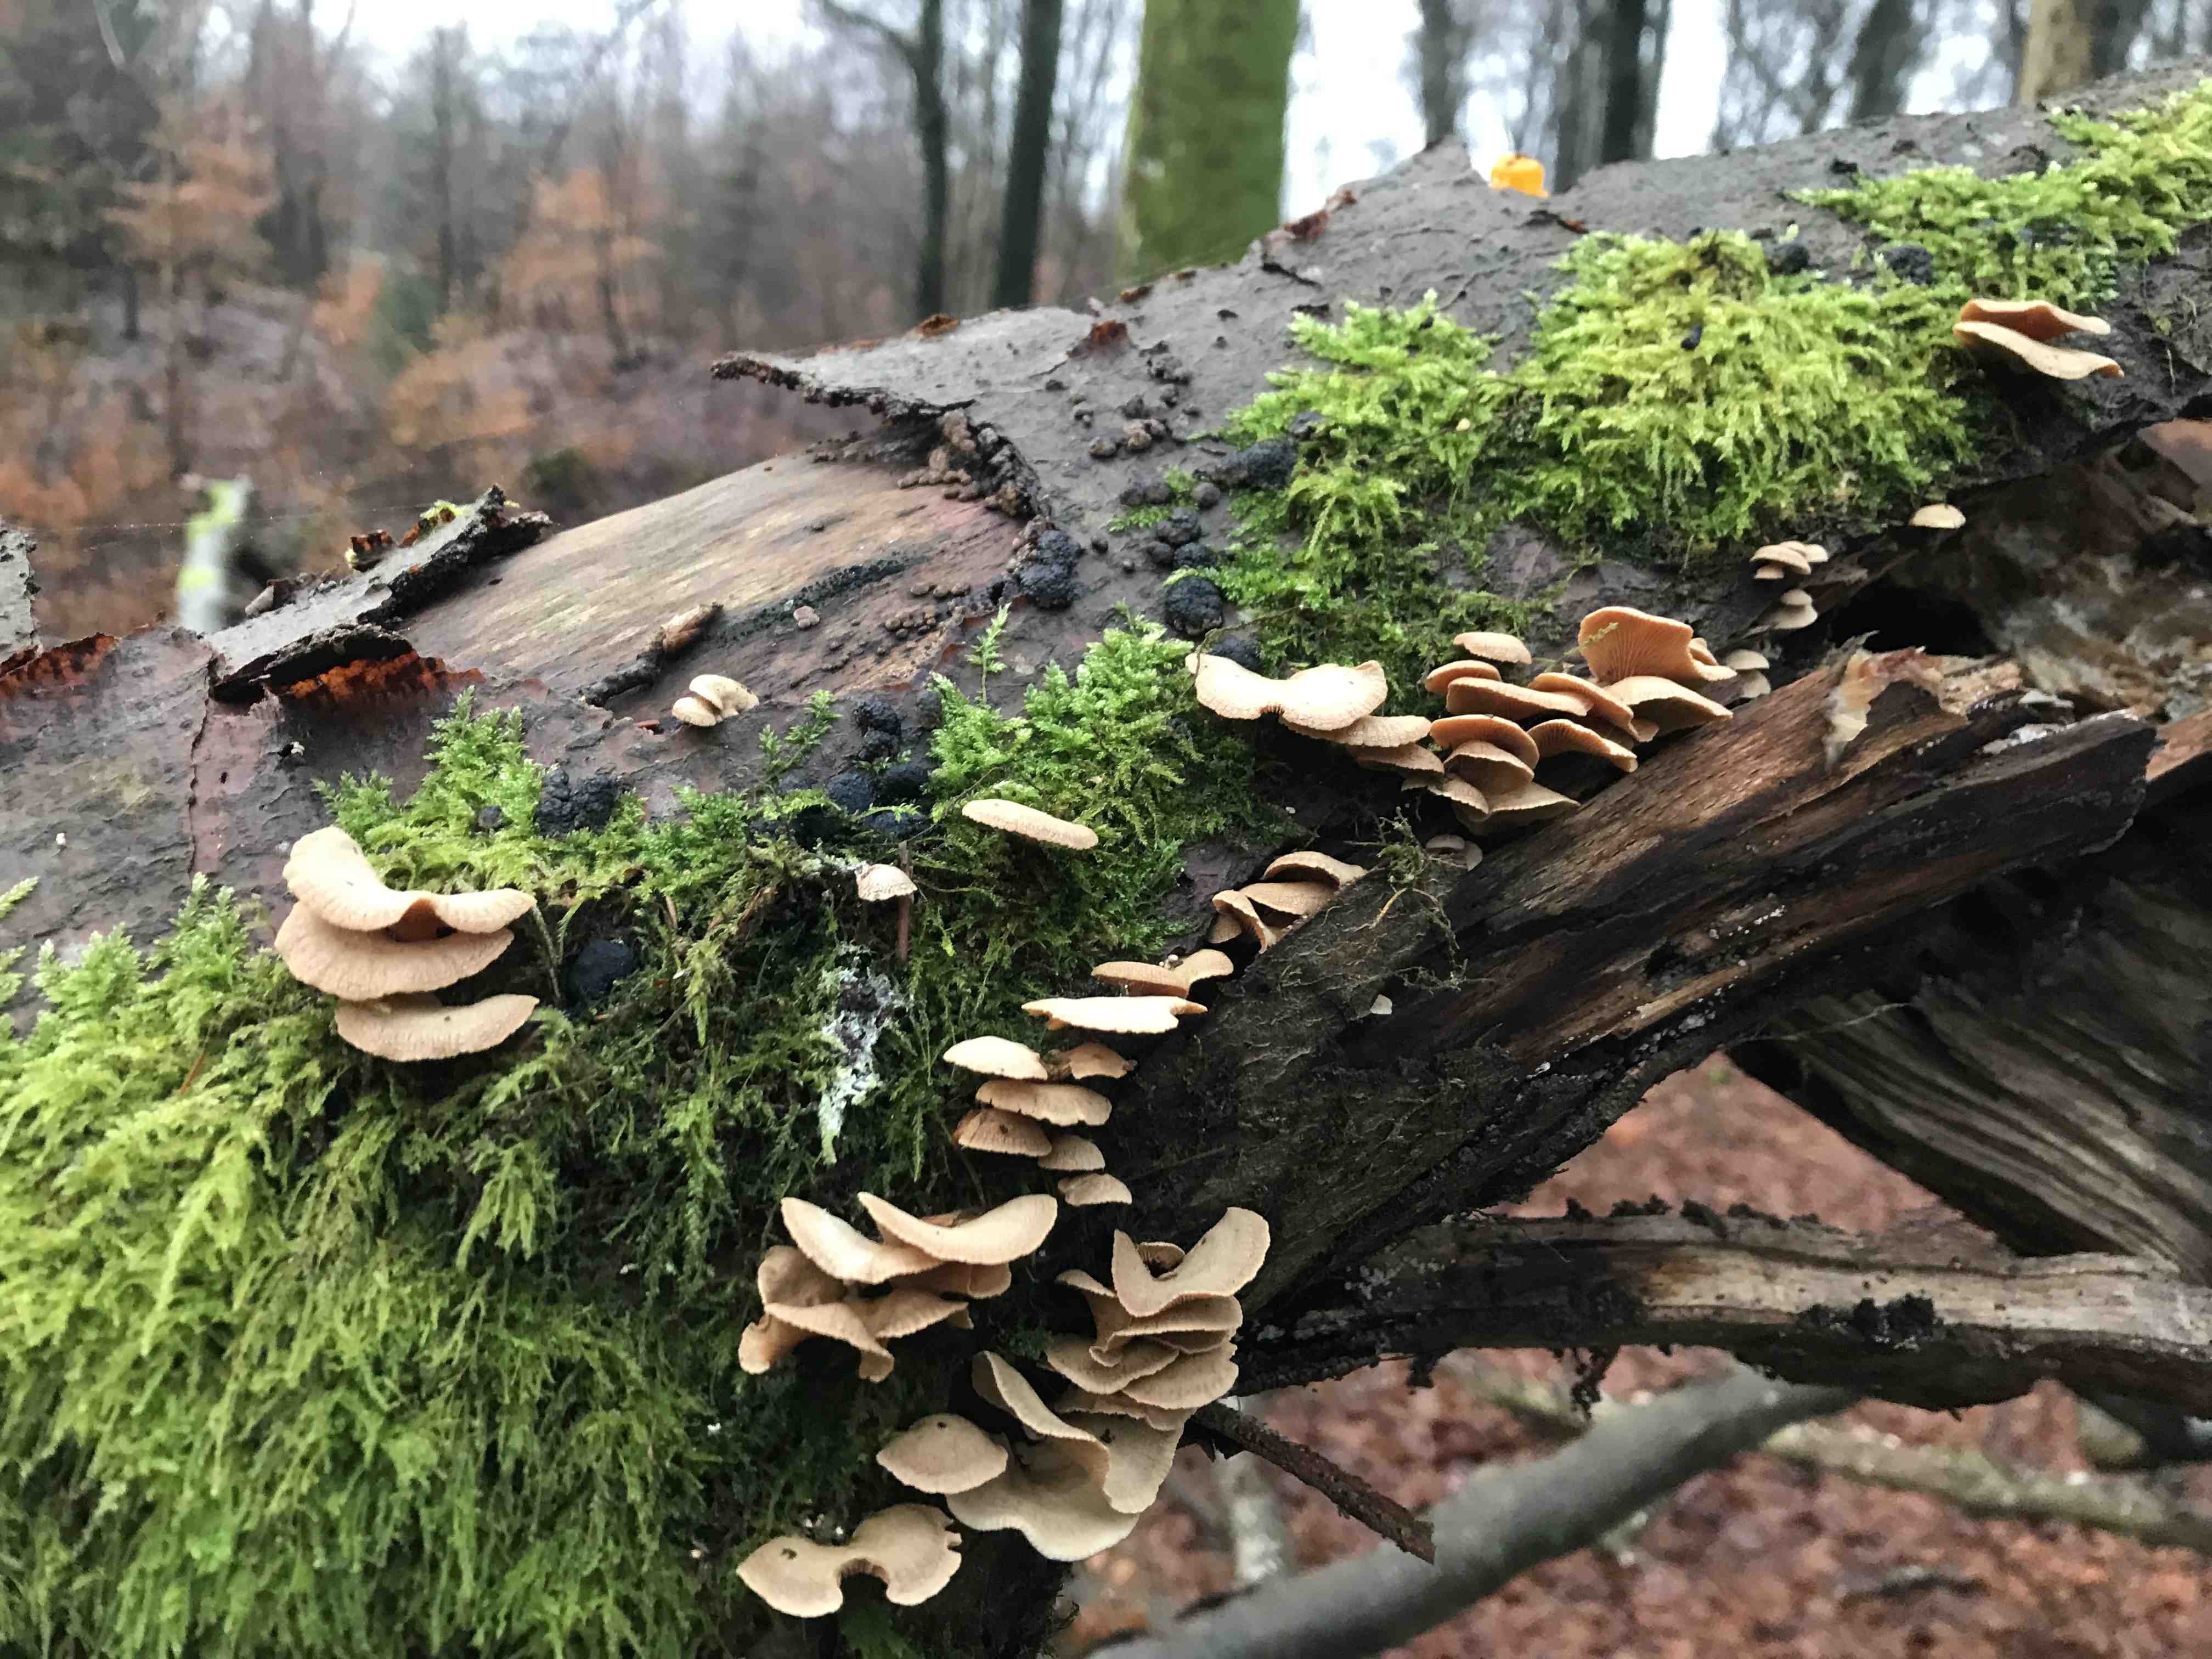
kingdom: Fungi
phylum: Basidiomycota
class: Agaricomycetes
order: Agaricales
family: Mycenaceae
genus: Panellus
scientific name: Panellus stipticus
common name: kliddet epaulethat
